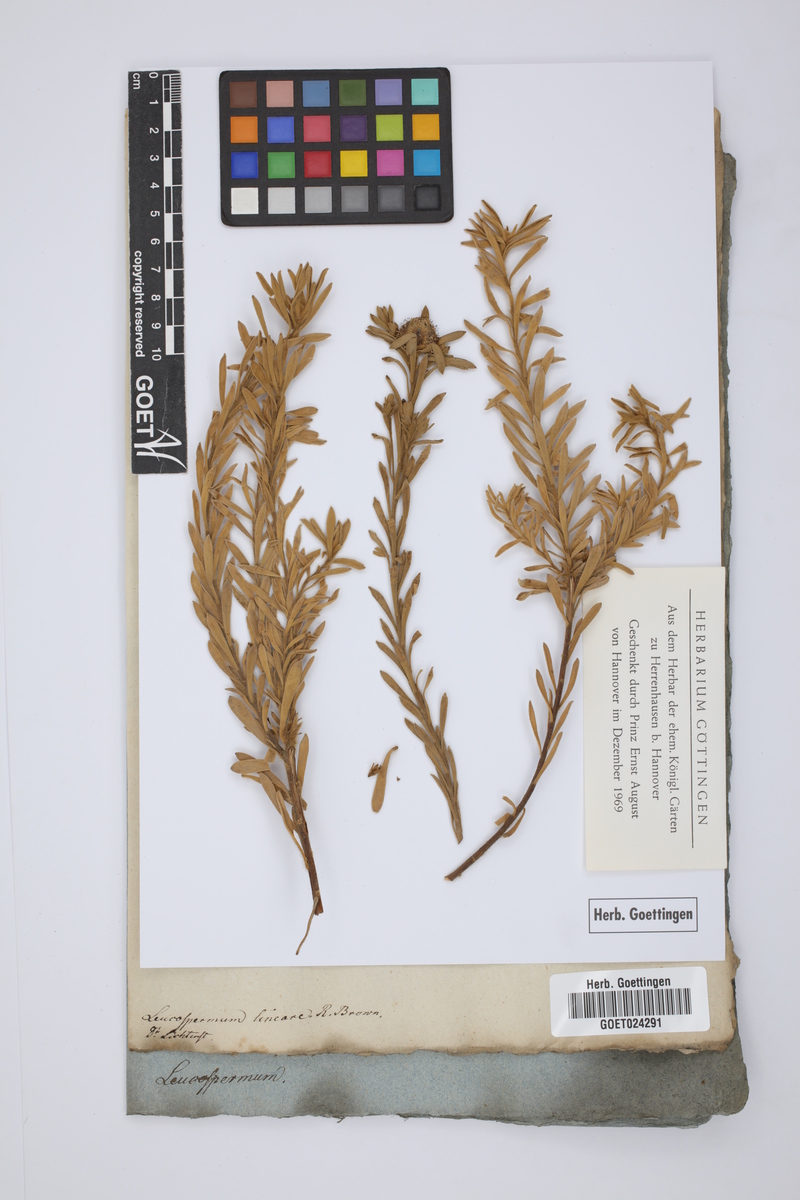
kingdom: Plantae
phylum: Tracheophyta
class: Magnoliopsida
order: Proteales
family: Proteaceae
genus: Leucospermum
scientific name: Leucospermum lineare
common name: Needle-leaf pincushion
